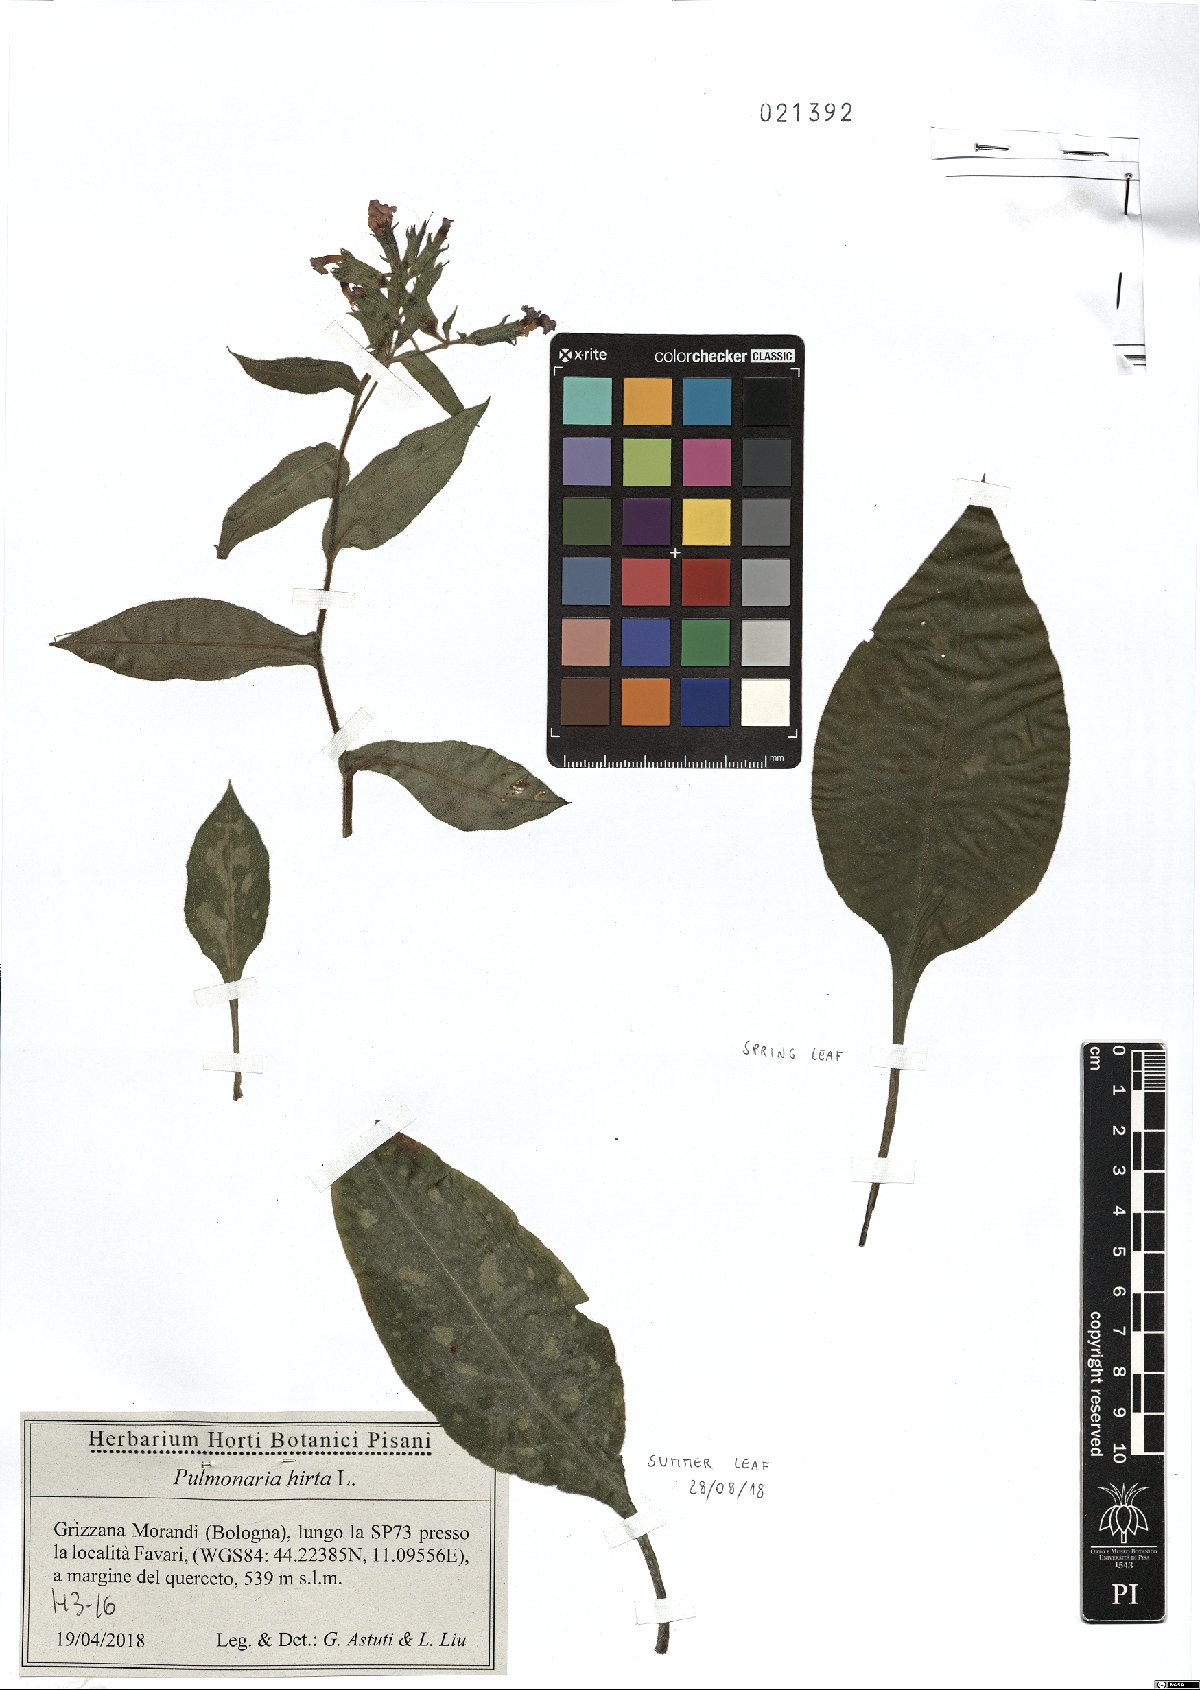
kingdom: Plantae
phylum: Tracheophyta
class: Magnoliopsida
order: Boraginales
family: Boraginaceae
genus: Pulmonaria
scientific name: Pulmonaria hirta
